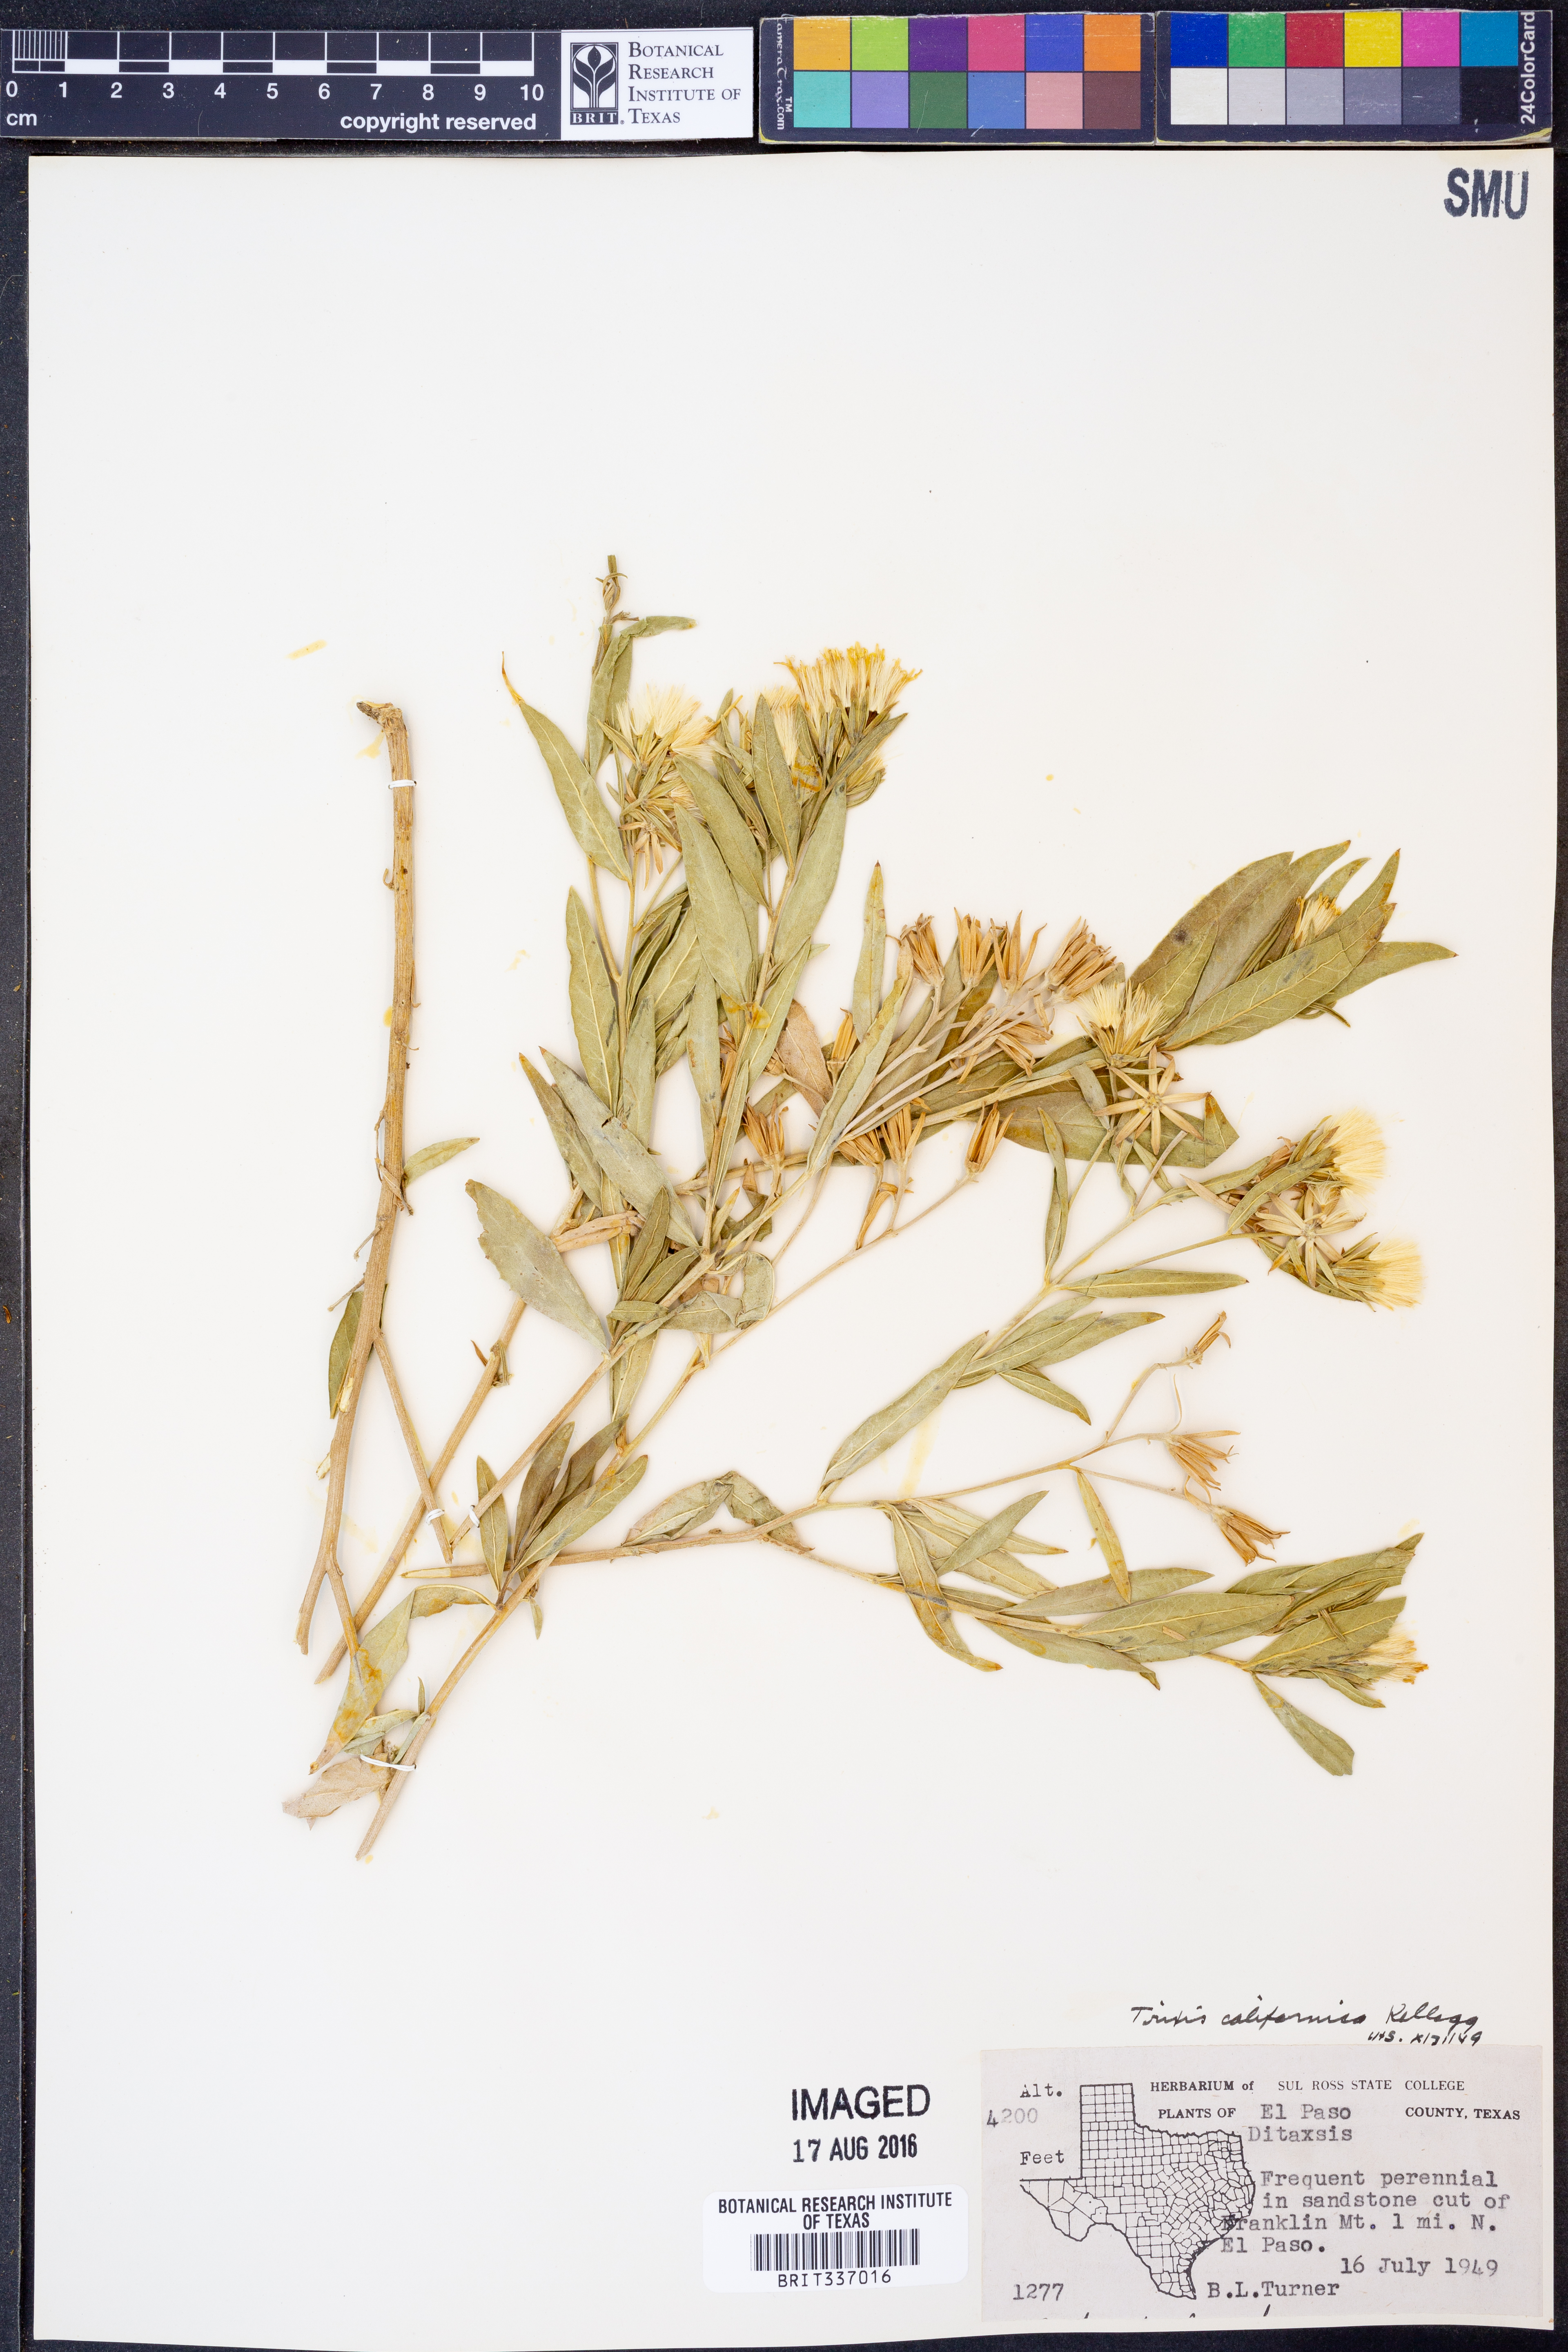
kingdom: Plantae
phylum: Tracheophyta
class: Magnoliopsida
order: Asterales
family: Asteraceae
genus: Trixis
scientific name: Trixis californica
